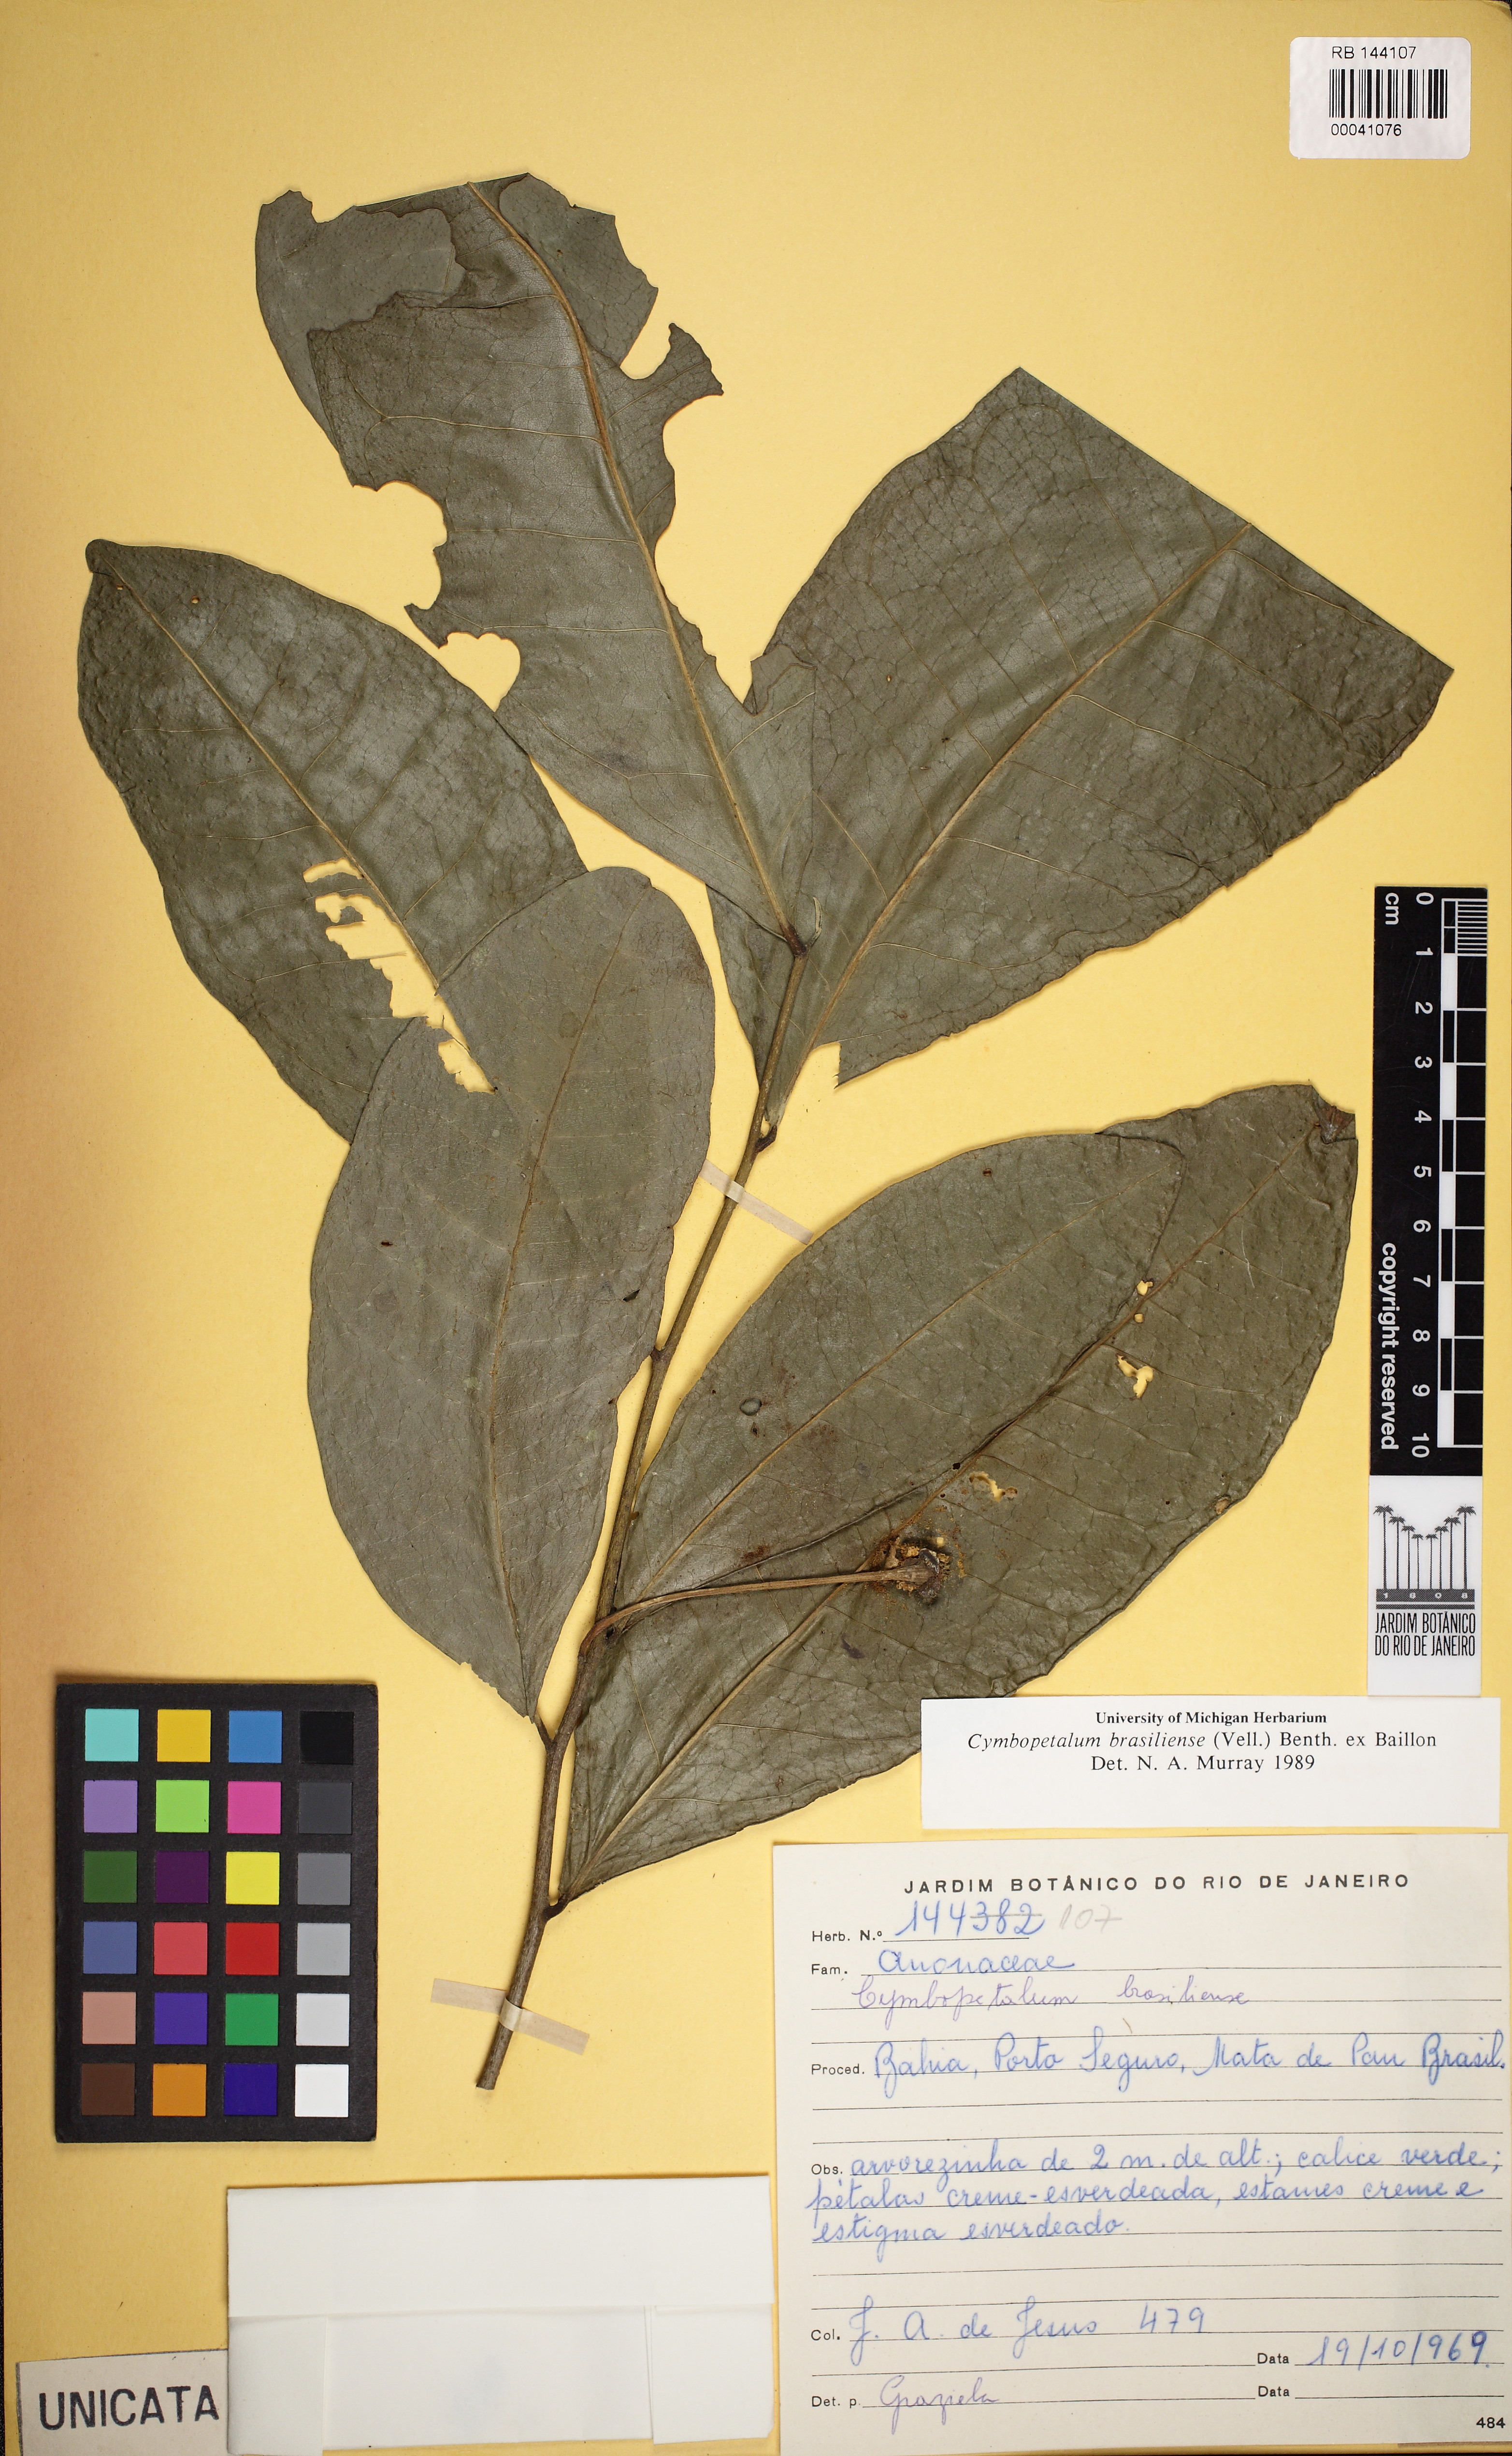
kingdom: Plantae
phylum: Tracheophyta
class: Magnoliopsida
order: Magnoliales
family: Annonaceae
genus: Cymbopetalum
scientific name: Cymbopetalum brasiliense
